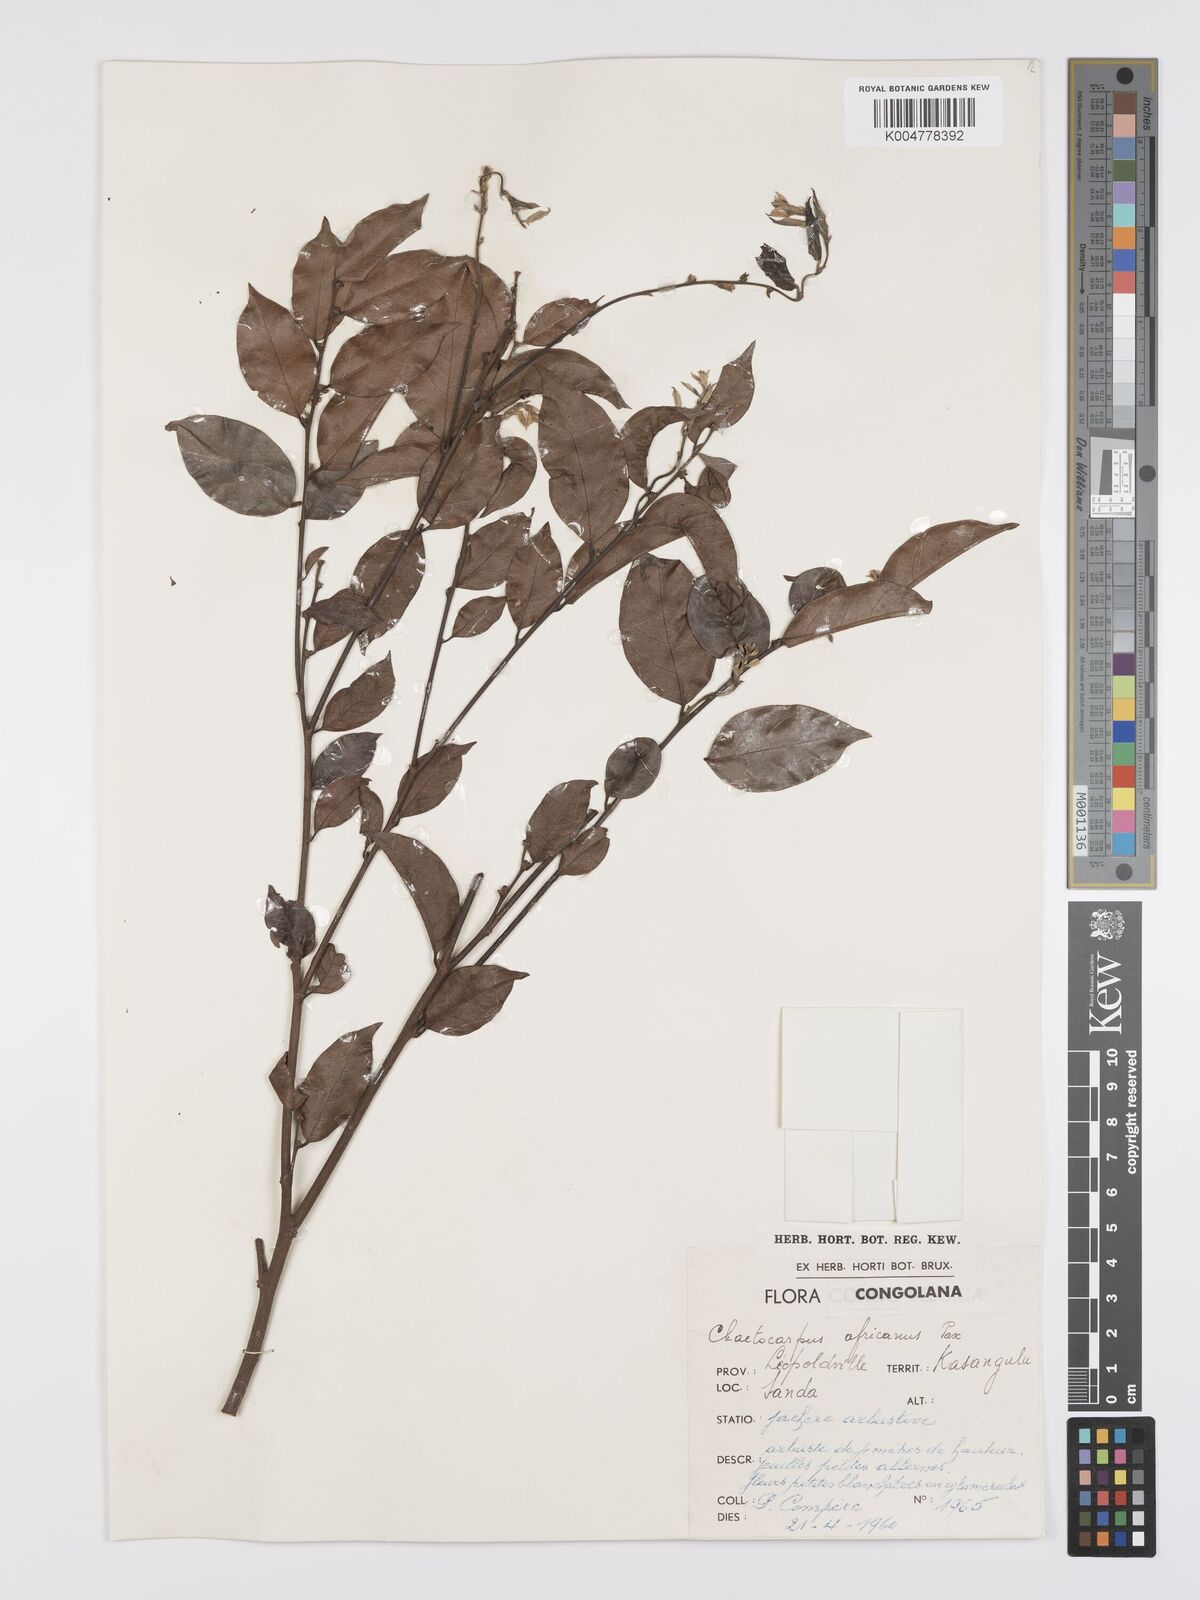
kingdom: Plantae
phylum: Tracheophyta
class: Magnoliopsida
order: Malpighiales
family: Peraceae
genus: Chaetocarpus
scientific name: Chaetocarpus africanus
